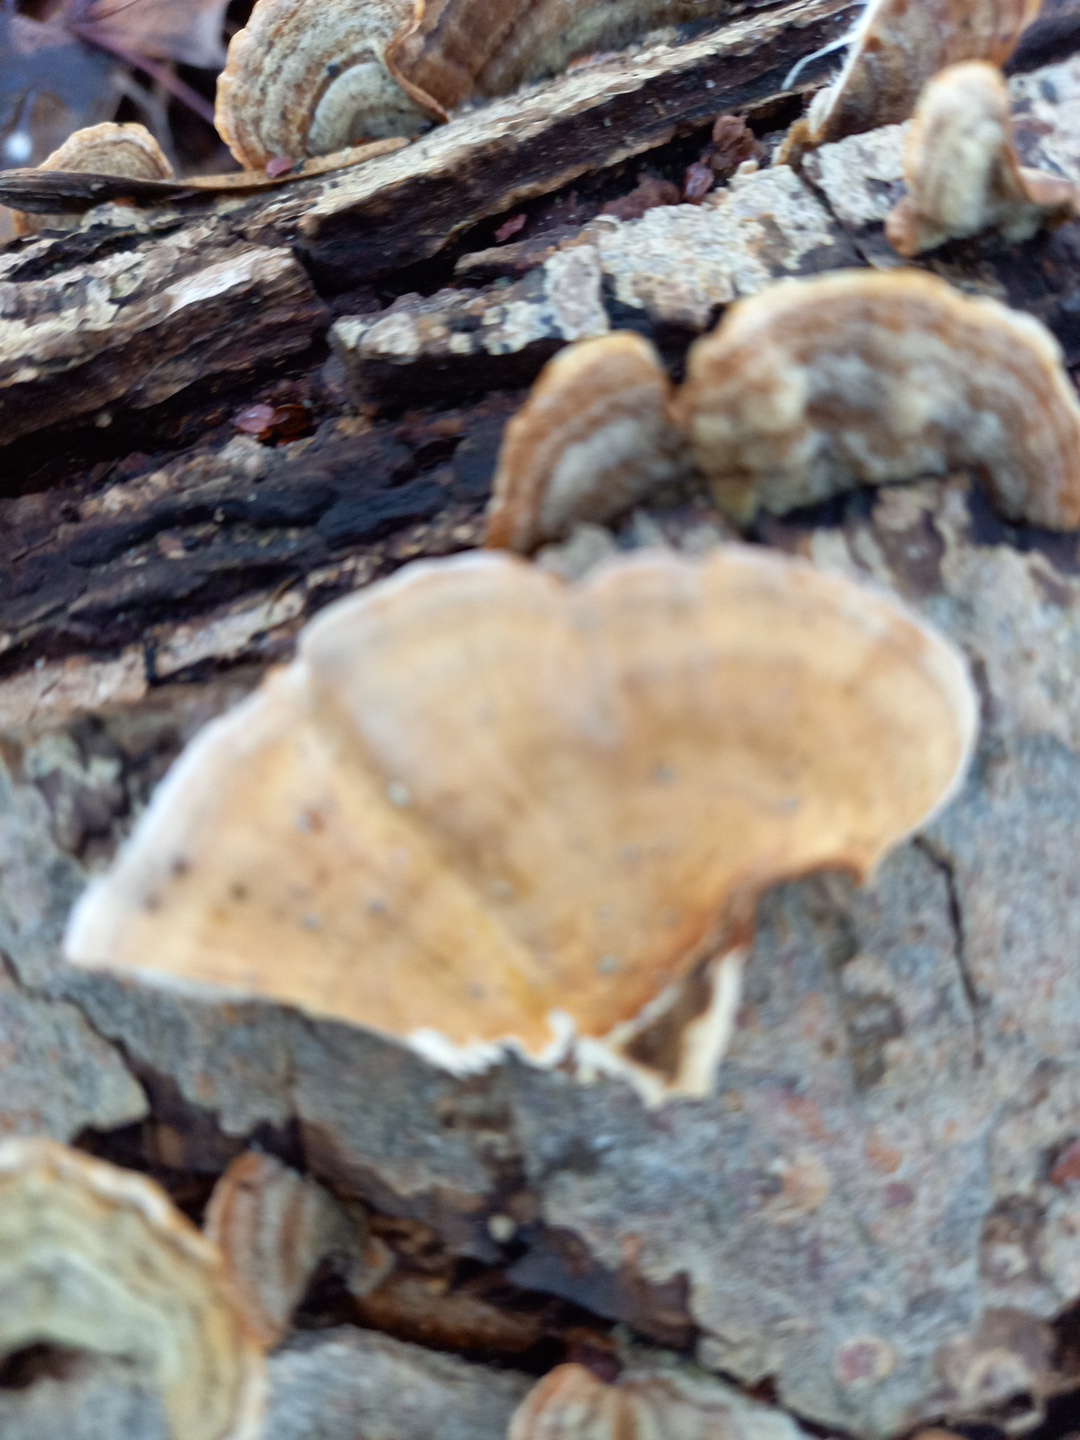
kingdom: Fungi
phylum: Basidiomycota
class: Agaricomycetes
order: Russulales
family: Stereaceae
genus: Stereum
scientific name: Stereum subtomentosum
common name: smuk lædersvamp
